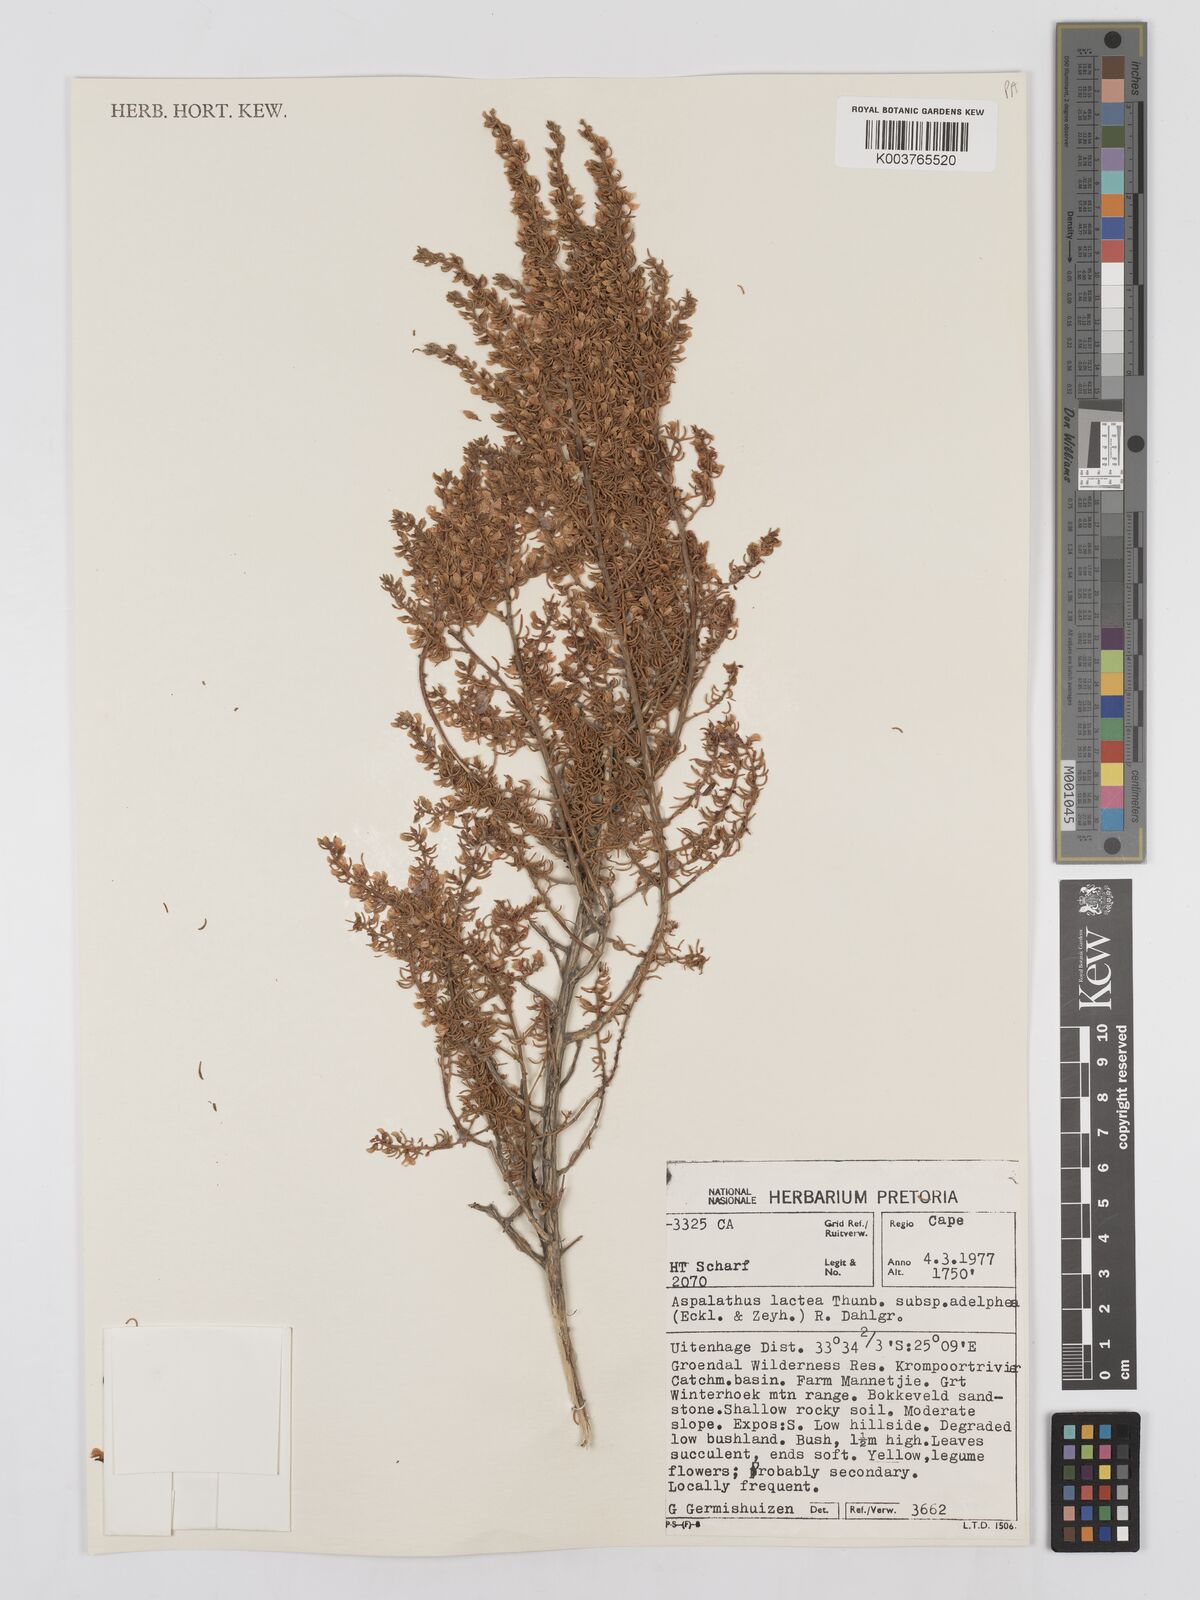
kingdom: Plantae
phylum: Tracheophyta
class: Magnoliopsida
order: Fabales
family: Fabaceae
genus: Aspalathus
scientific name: Aspalathus lactea
